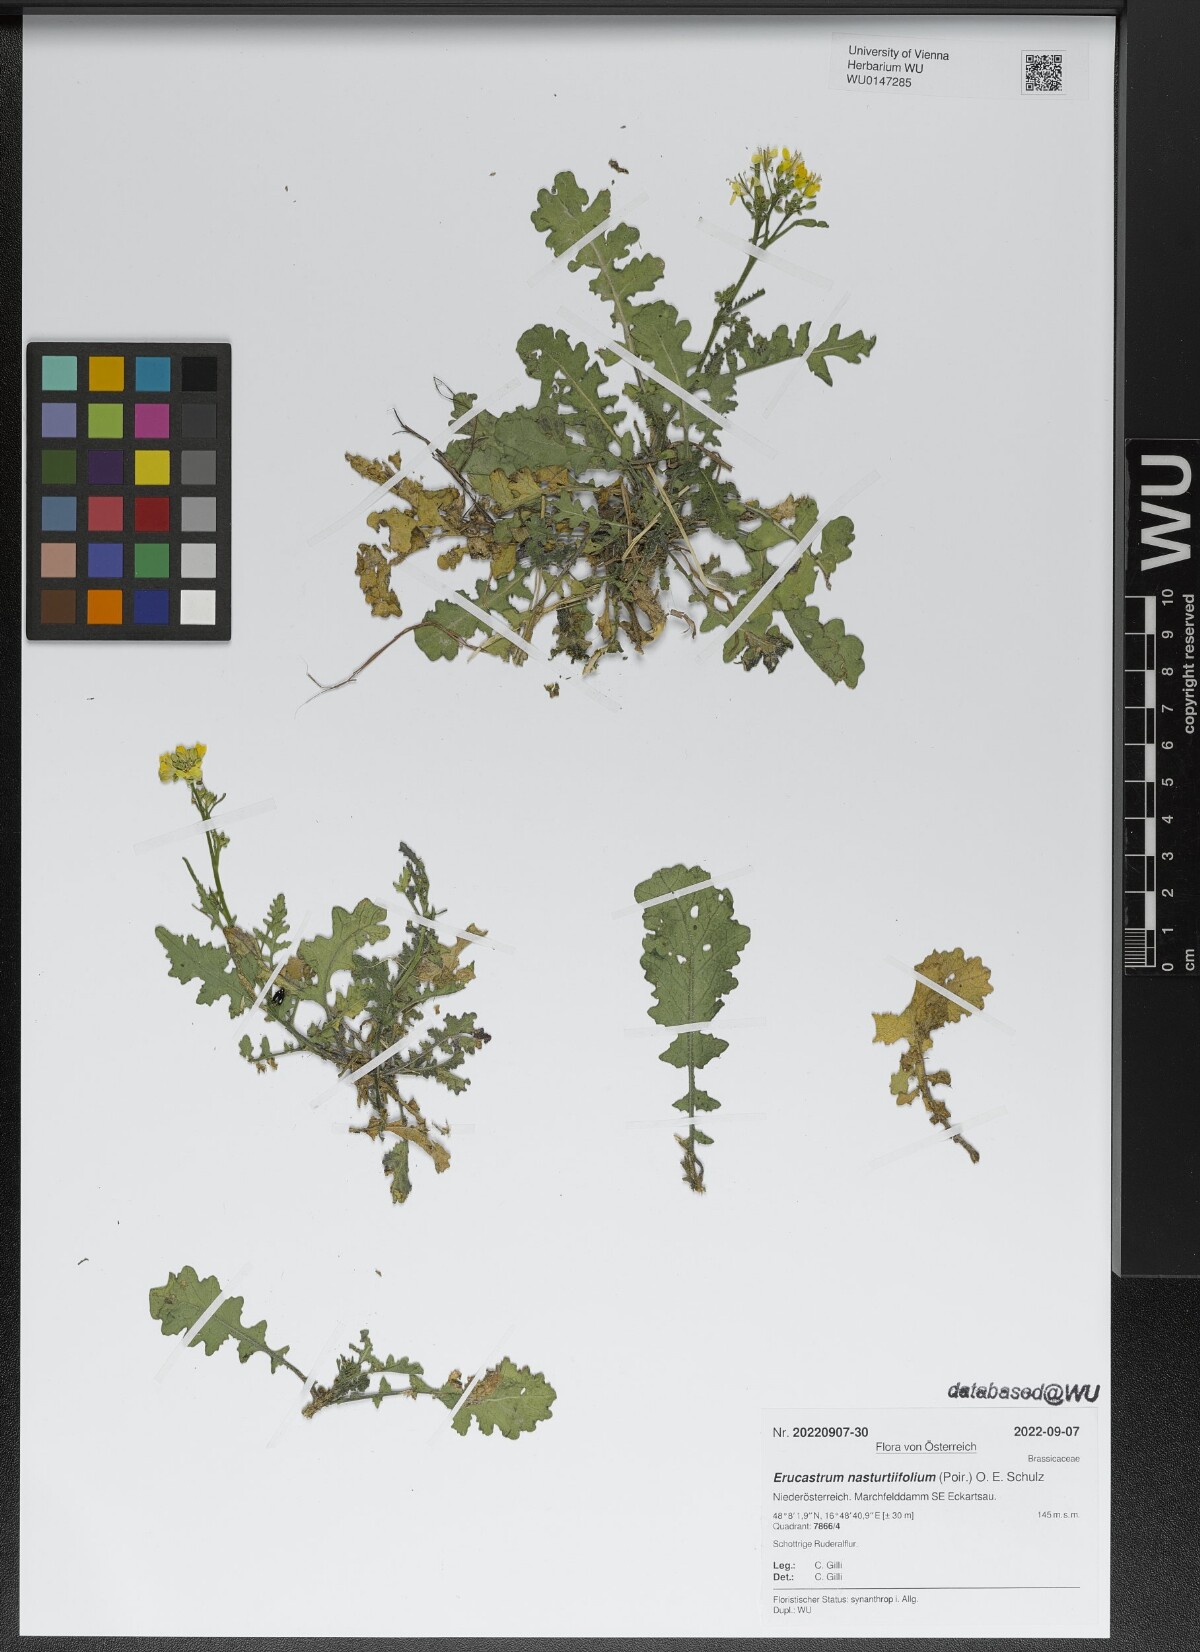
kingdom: Plantae
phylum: Tracheophyta
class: Magnoliopsida
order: Brassicales
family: Brassicaceae
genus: Erucastrum
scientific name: Erucastrum nasturtiifolium
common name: Watercress-leaf rocket
